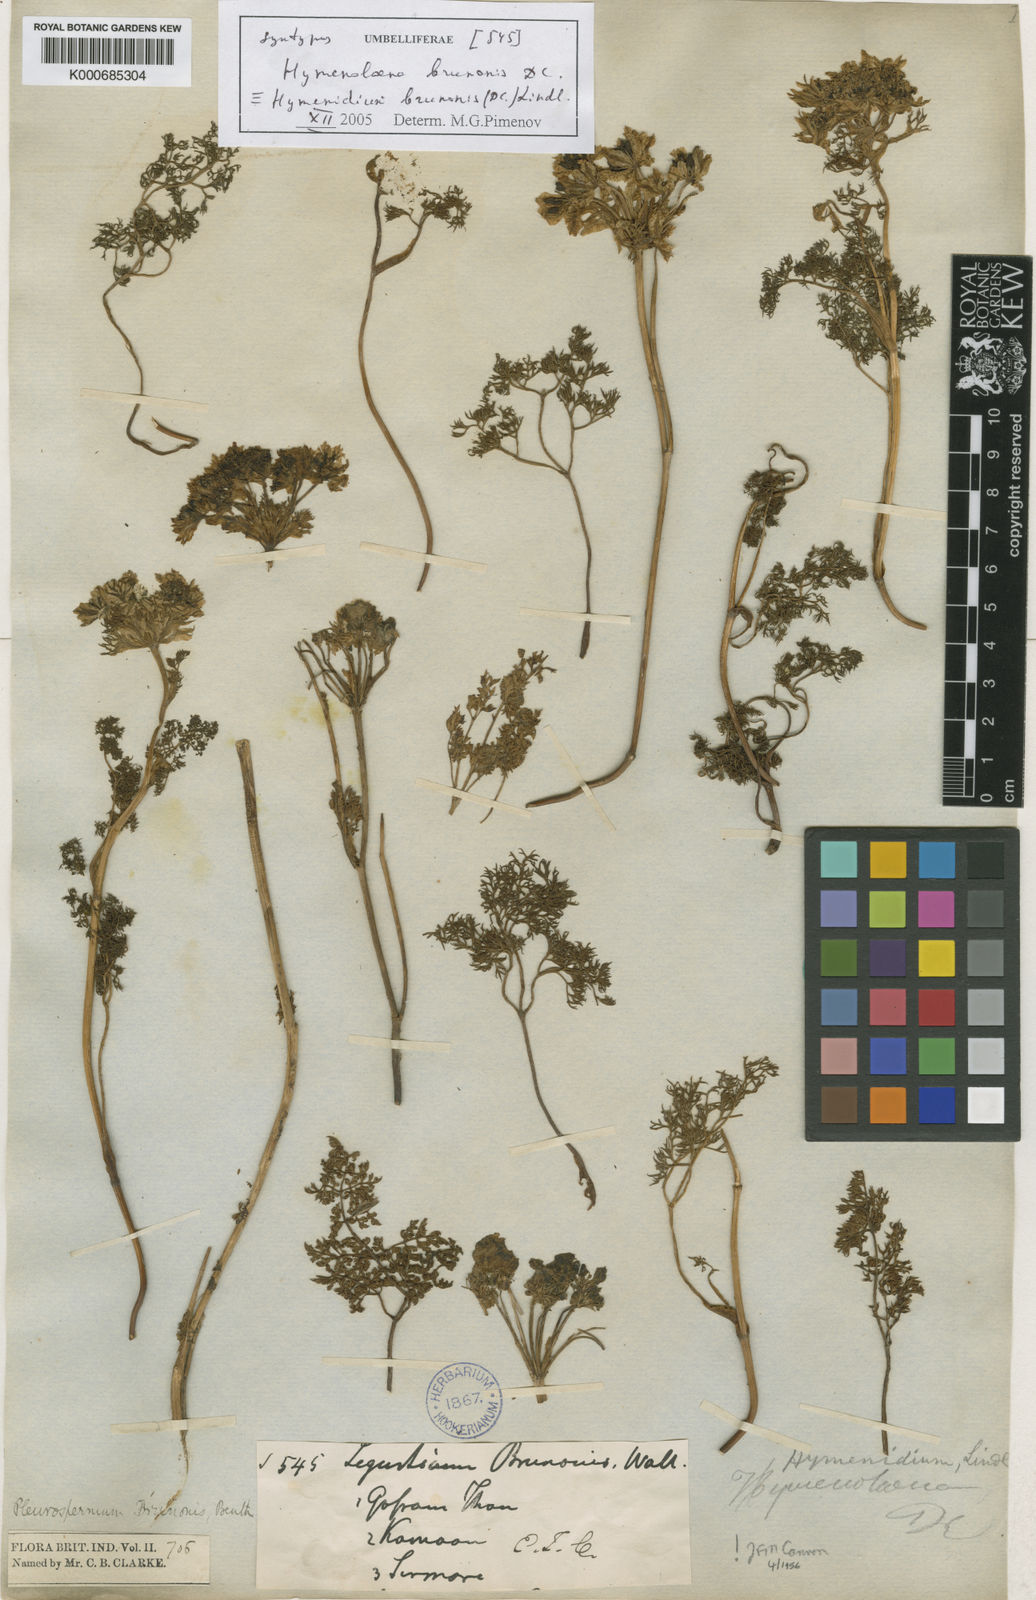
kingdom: Plantae
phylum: Tracheophyta
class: Magnoliopsida
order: Apiales
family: Apiaceae
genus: Pleurospermum
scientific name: Pleurospermum
